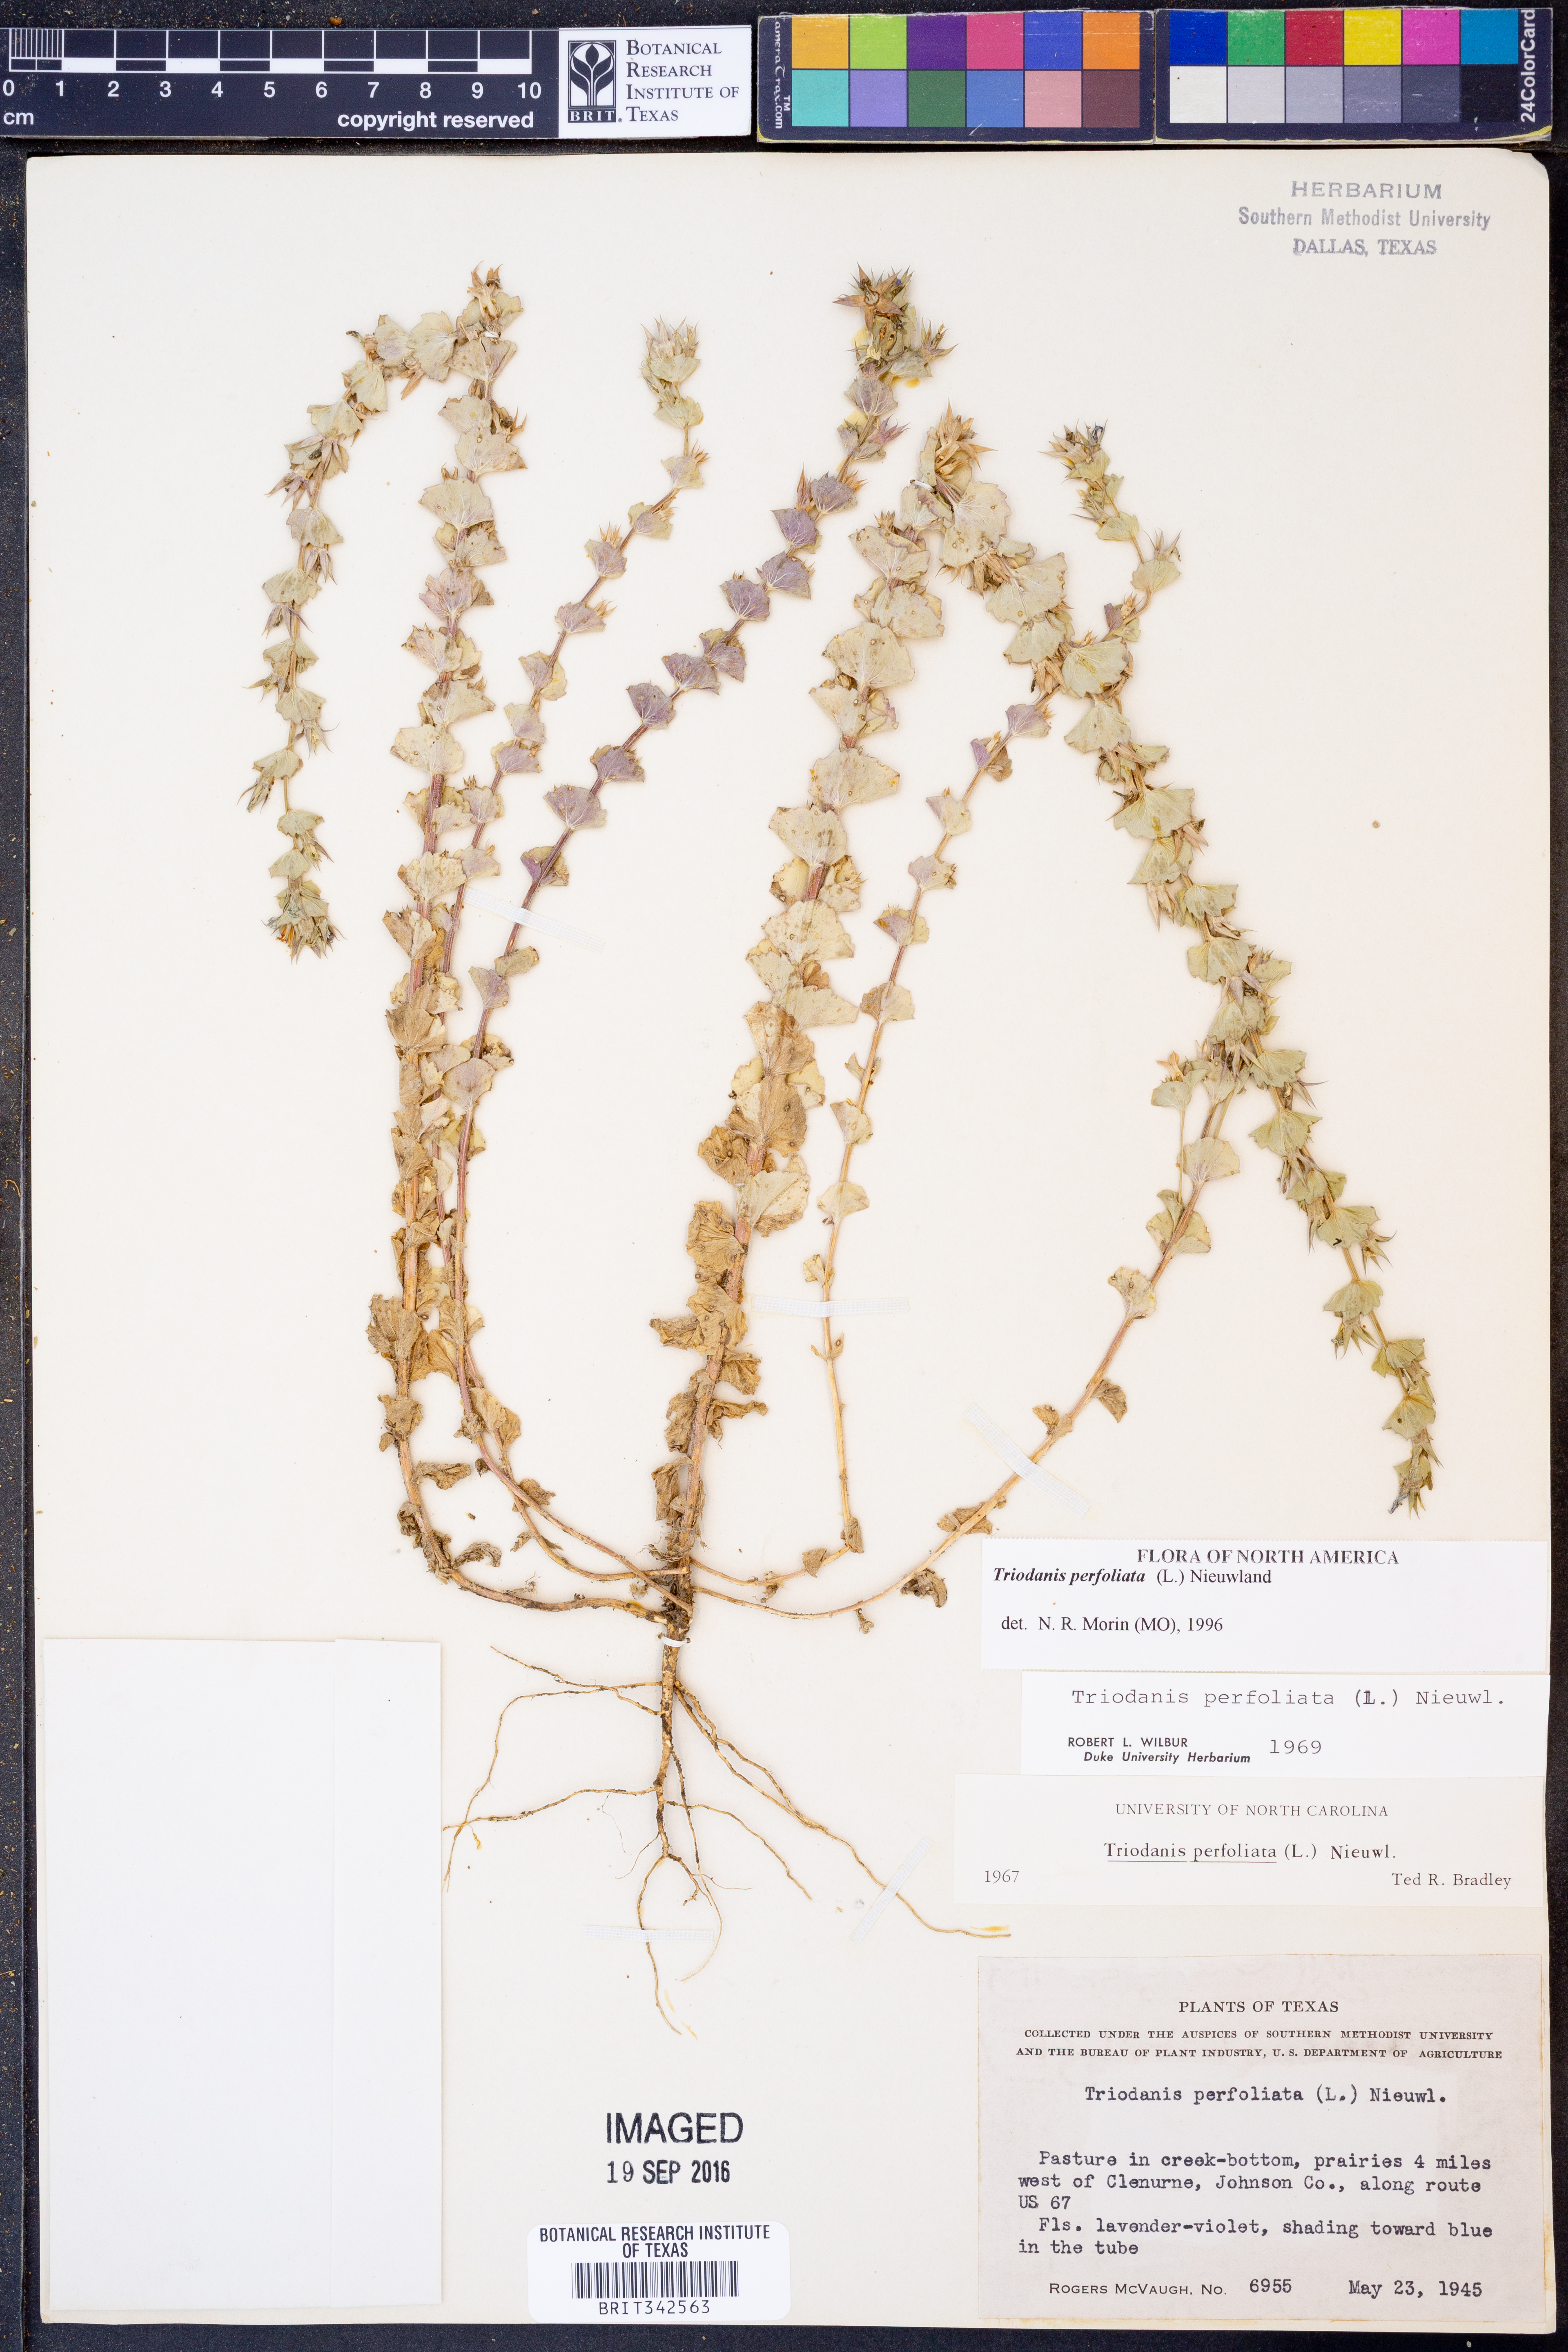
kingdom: Plantae
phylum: Tracheophyta
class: Magnoliopsida
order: Asterales
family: Campanulaceae
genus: Triodanis
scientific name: Triodanis perfoliata
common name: Clasping venus' looking-glass
